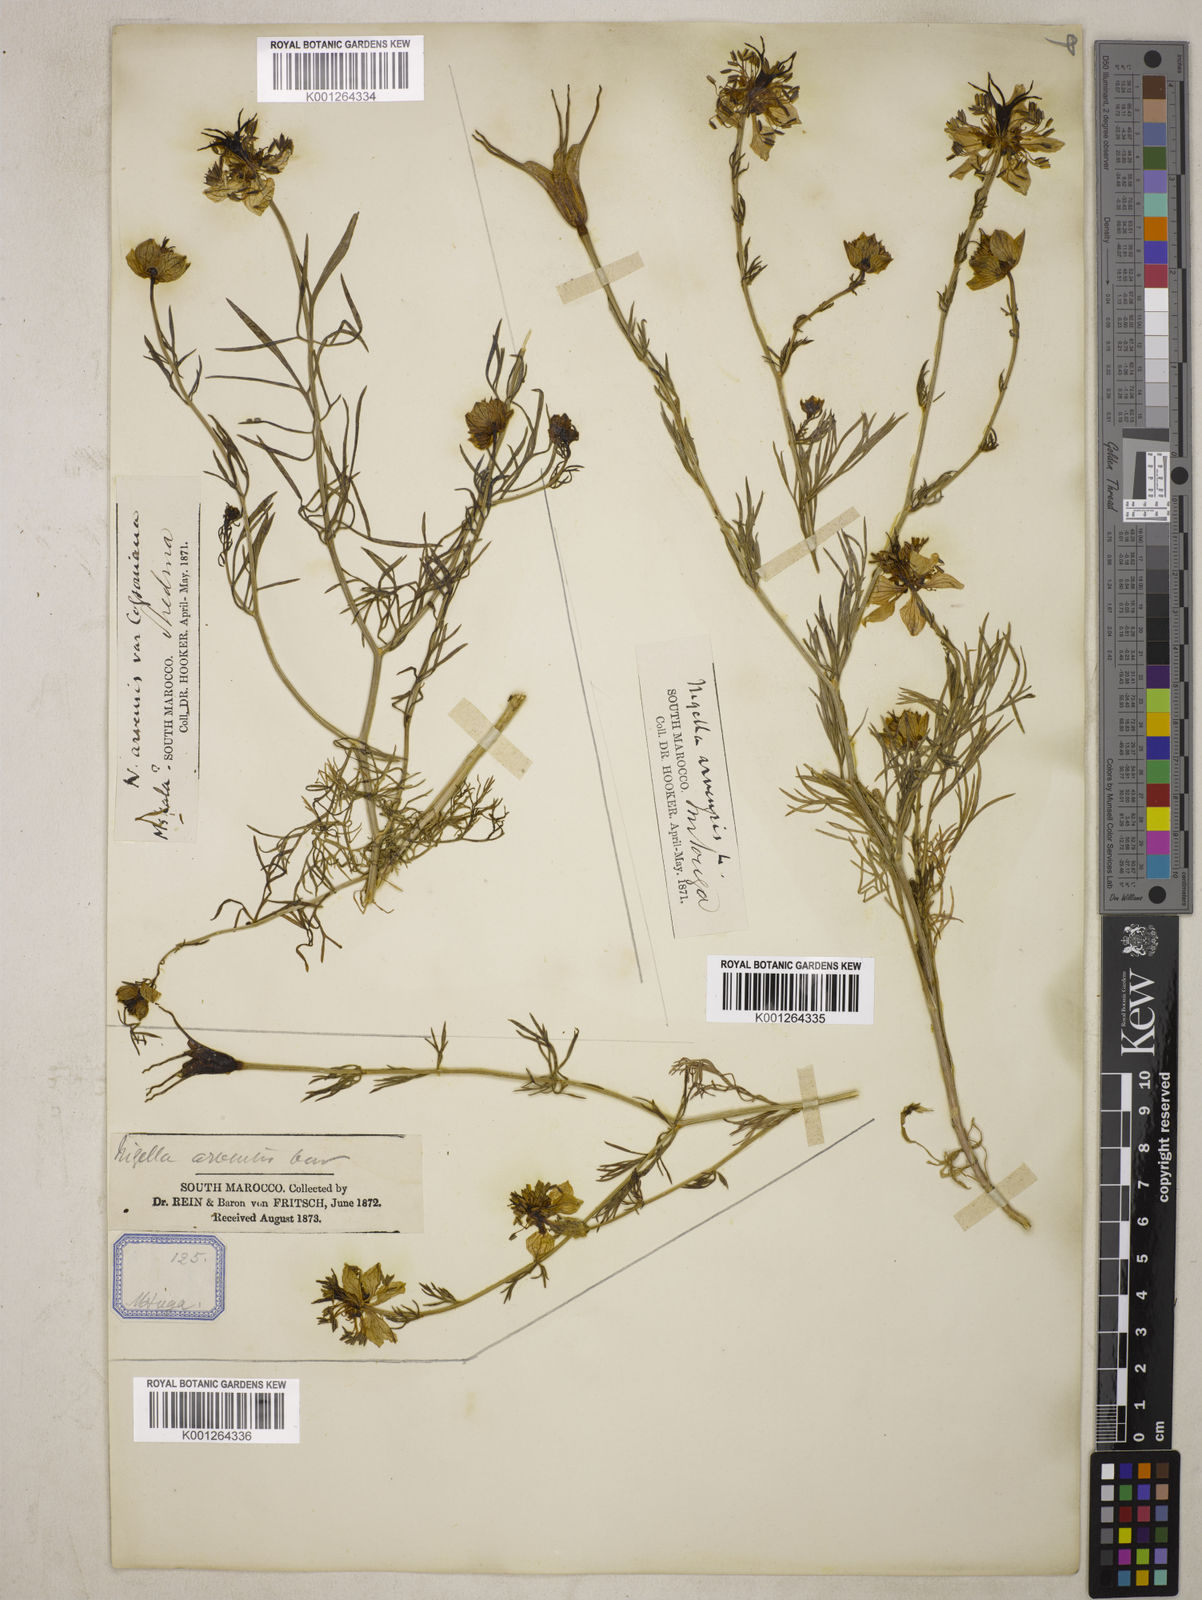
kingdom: Plantae
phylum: Tracheophyta
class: Magnoliopsida
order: Ranunculales
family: Ranunculaceae
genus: Nigella
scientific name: Nigella arvensis
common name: Wild fennel-flower
